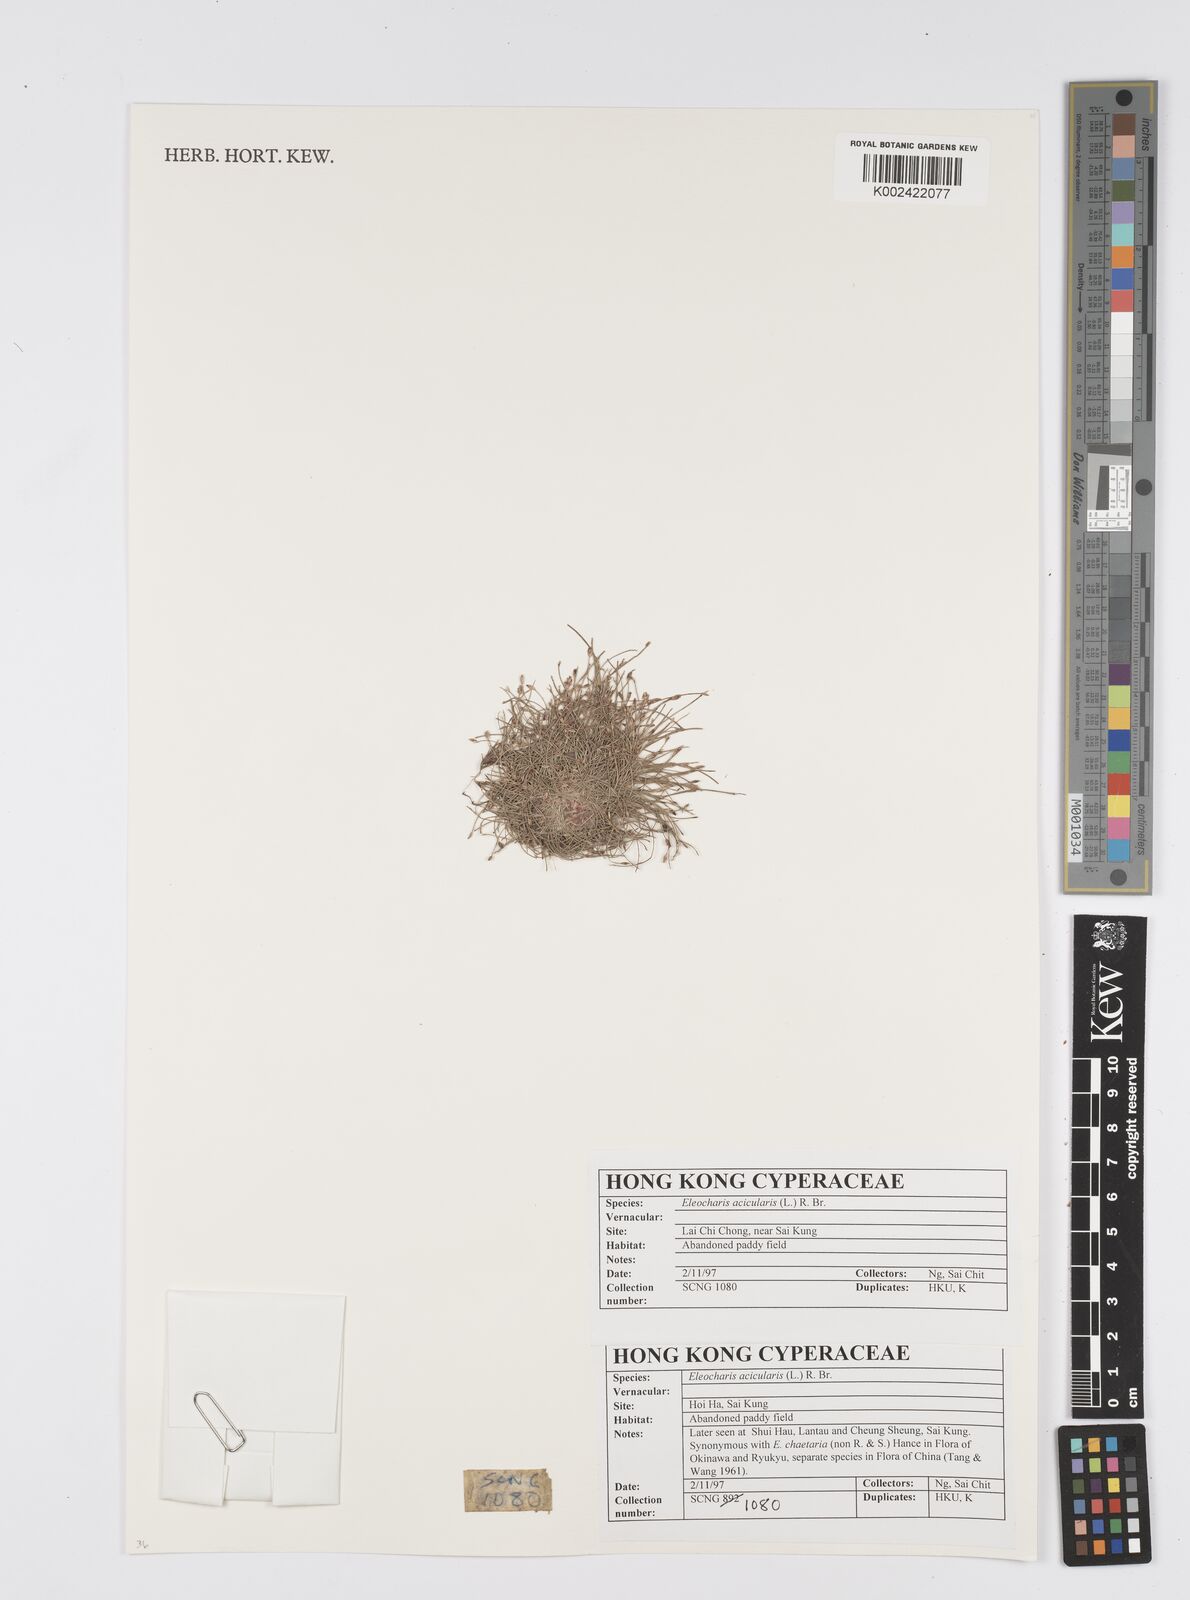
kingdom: Plantae
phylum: Tracheophyta
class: Liliopsida
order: Poales
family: Cyperaceae
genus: Eleocharis
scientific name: Eleocharis acicularis
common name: Needle spike-rush
